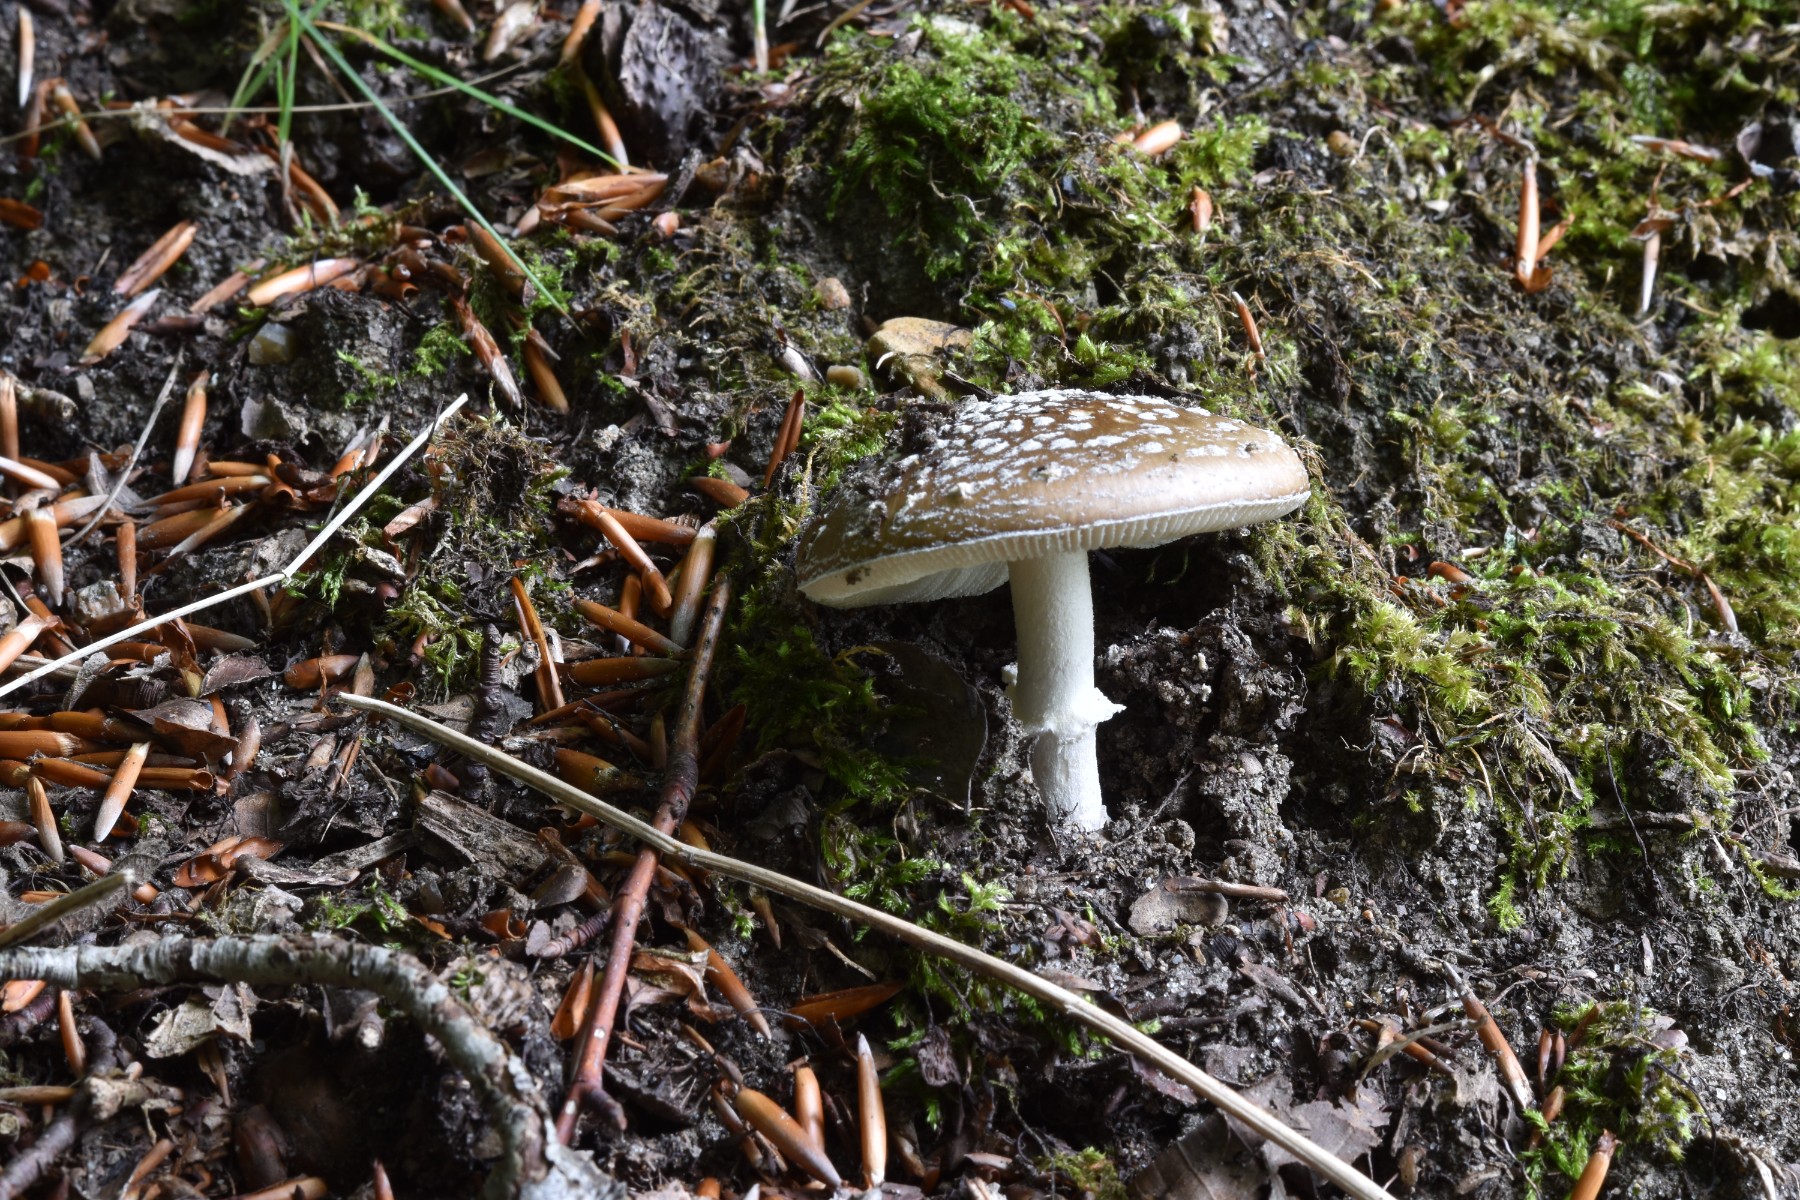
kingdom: Fungi
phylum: Basidiomycota
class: Agaricomycetes
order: Agaricales
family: Amanitaceae
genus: Amanita
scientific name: Amanita pantherina
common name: panter-fluesvamp
